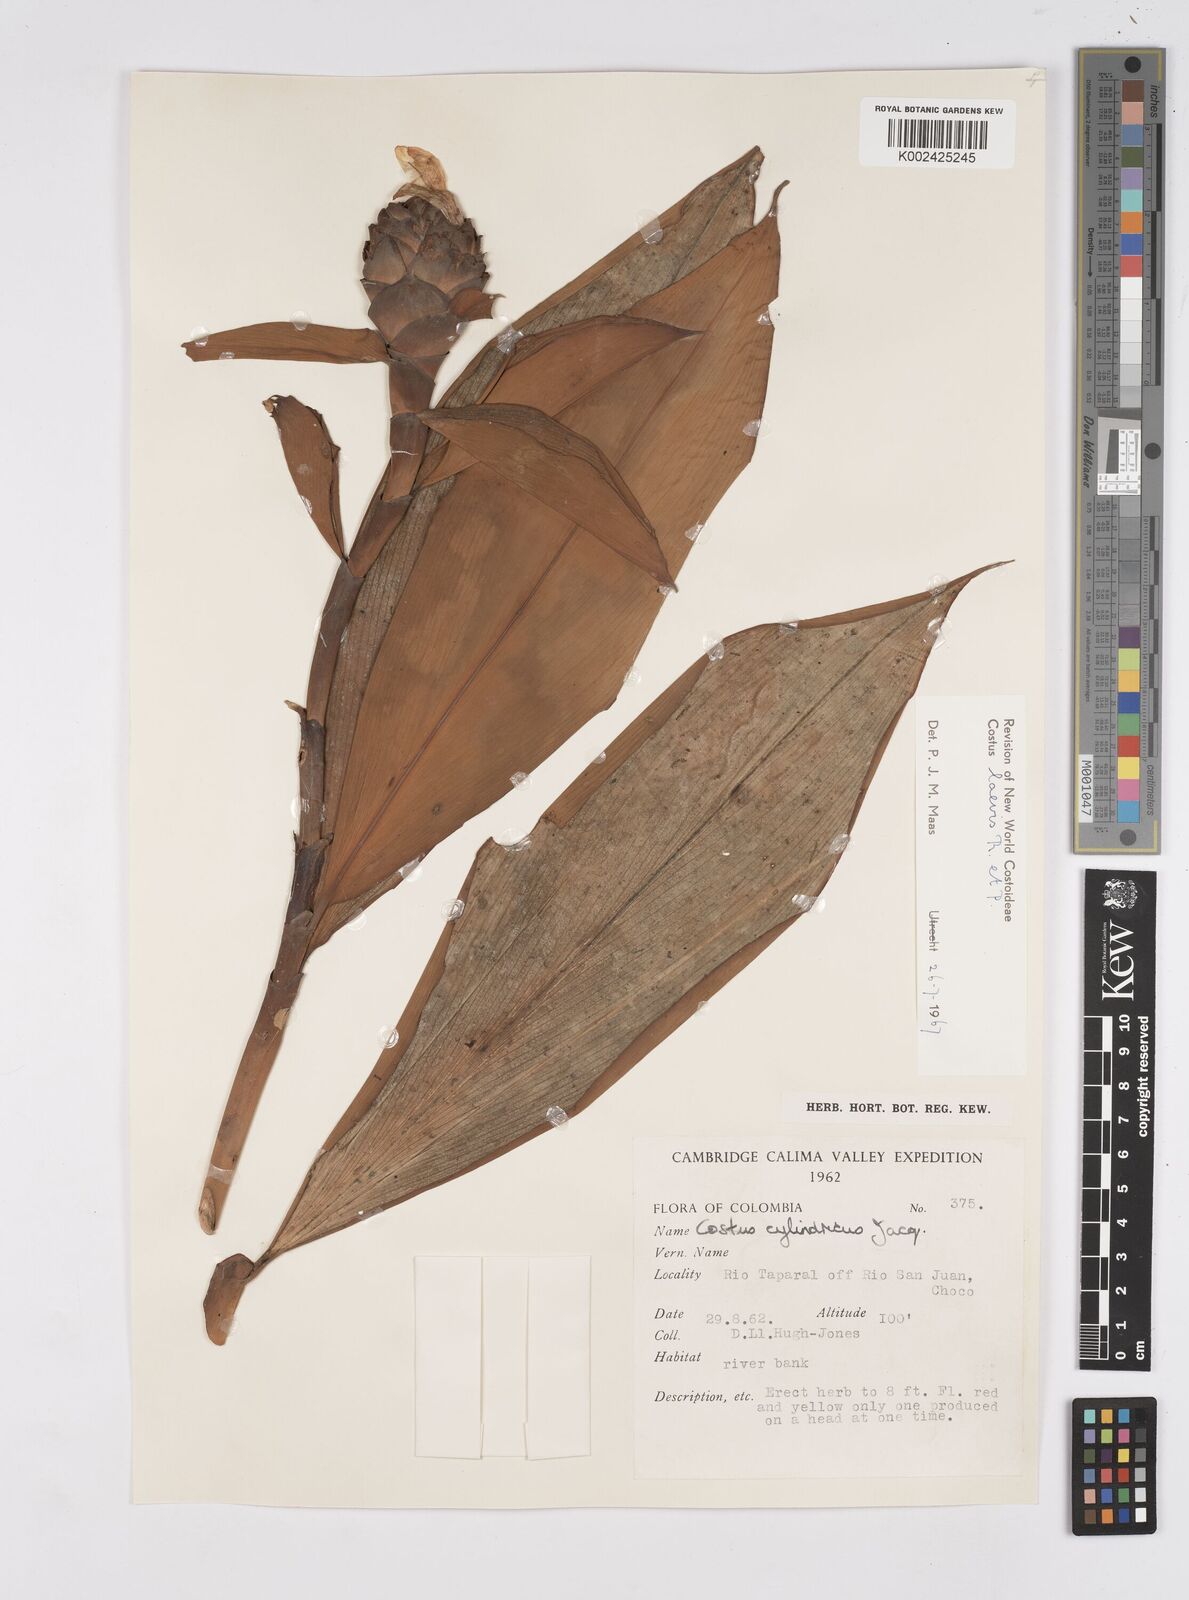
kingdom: Plantae
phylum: Tracheophyta
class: Liliopsida
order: Zingiberales
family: Costaceae
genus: Costus
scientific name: Costus laevis
